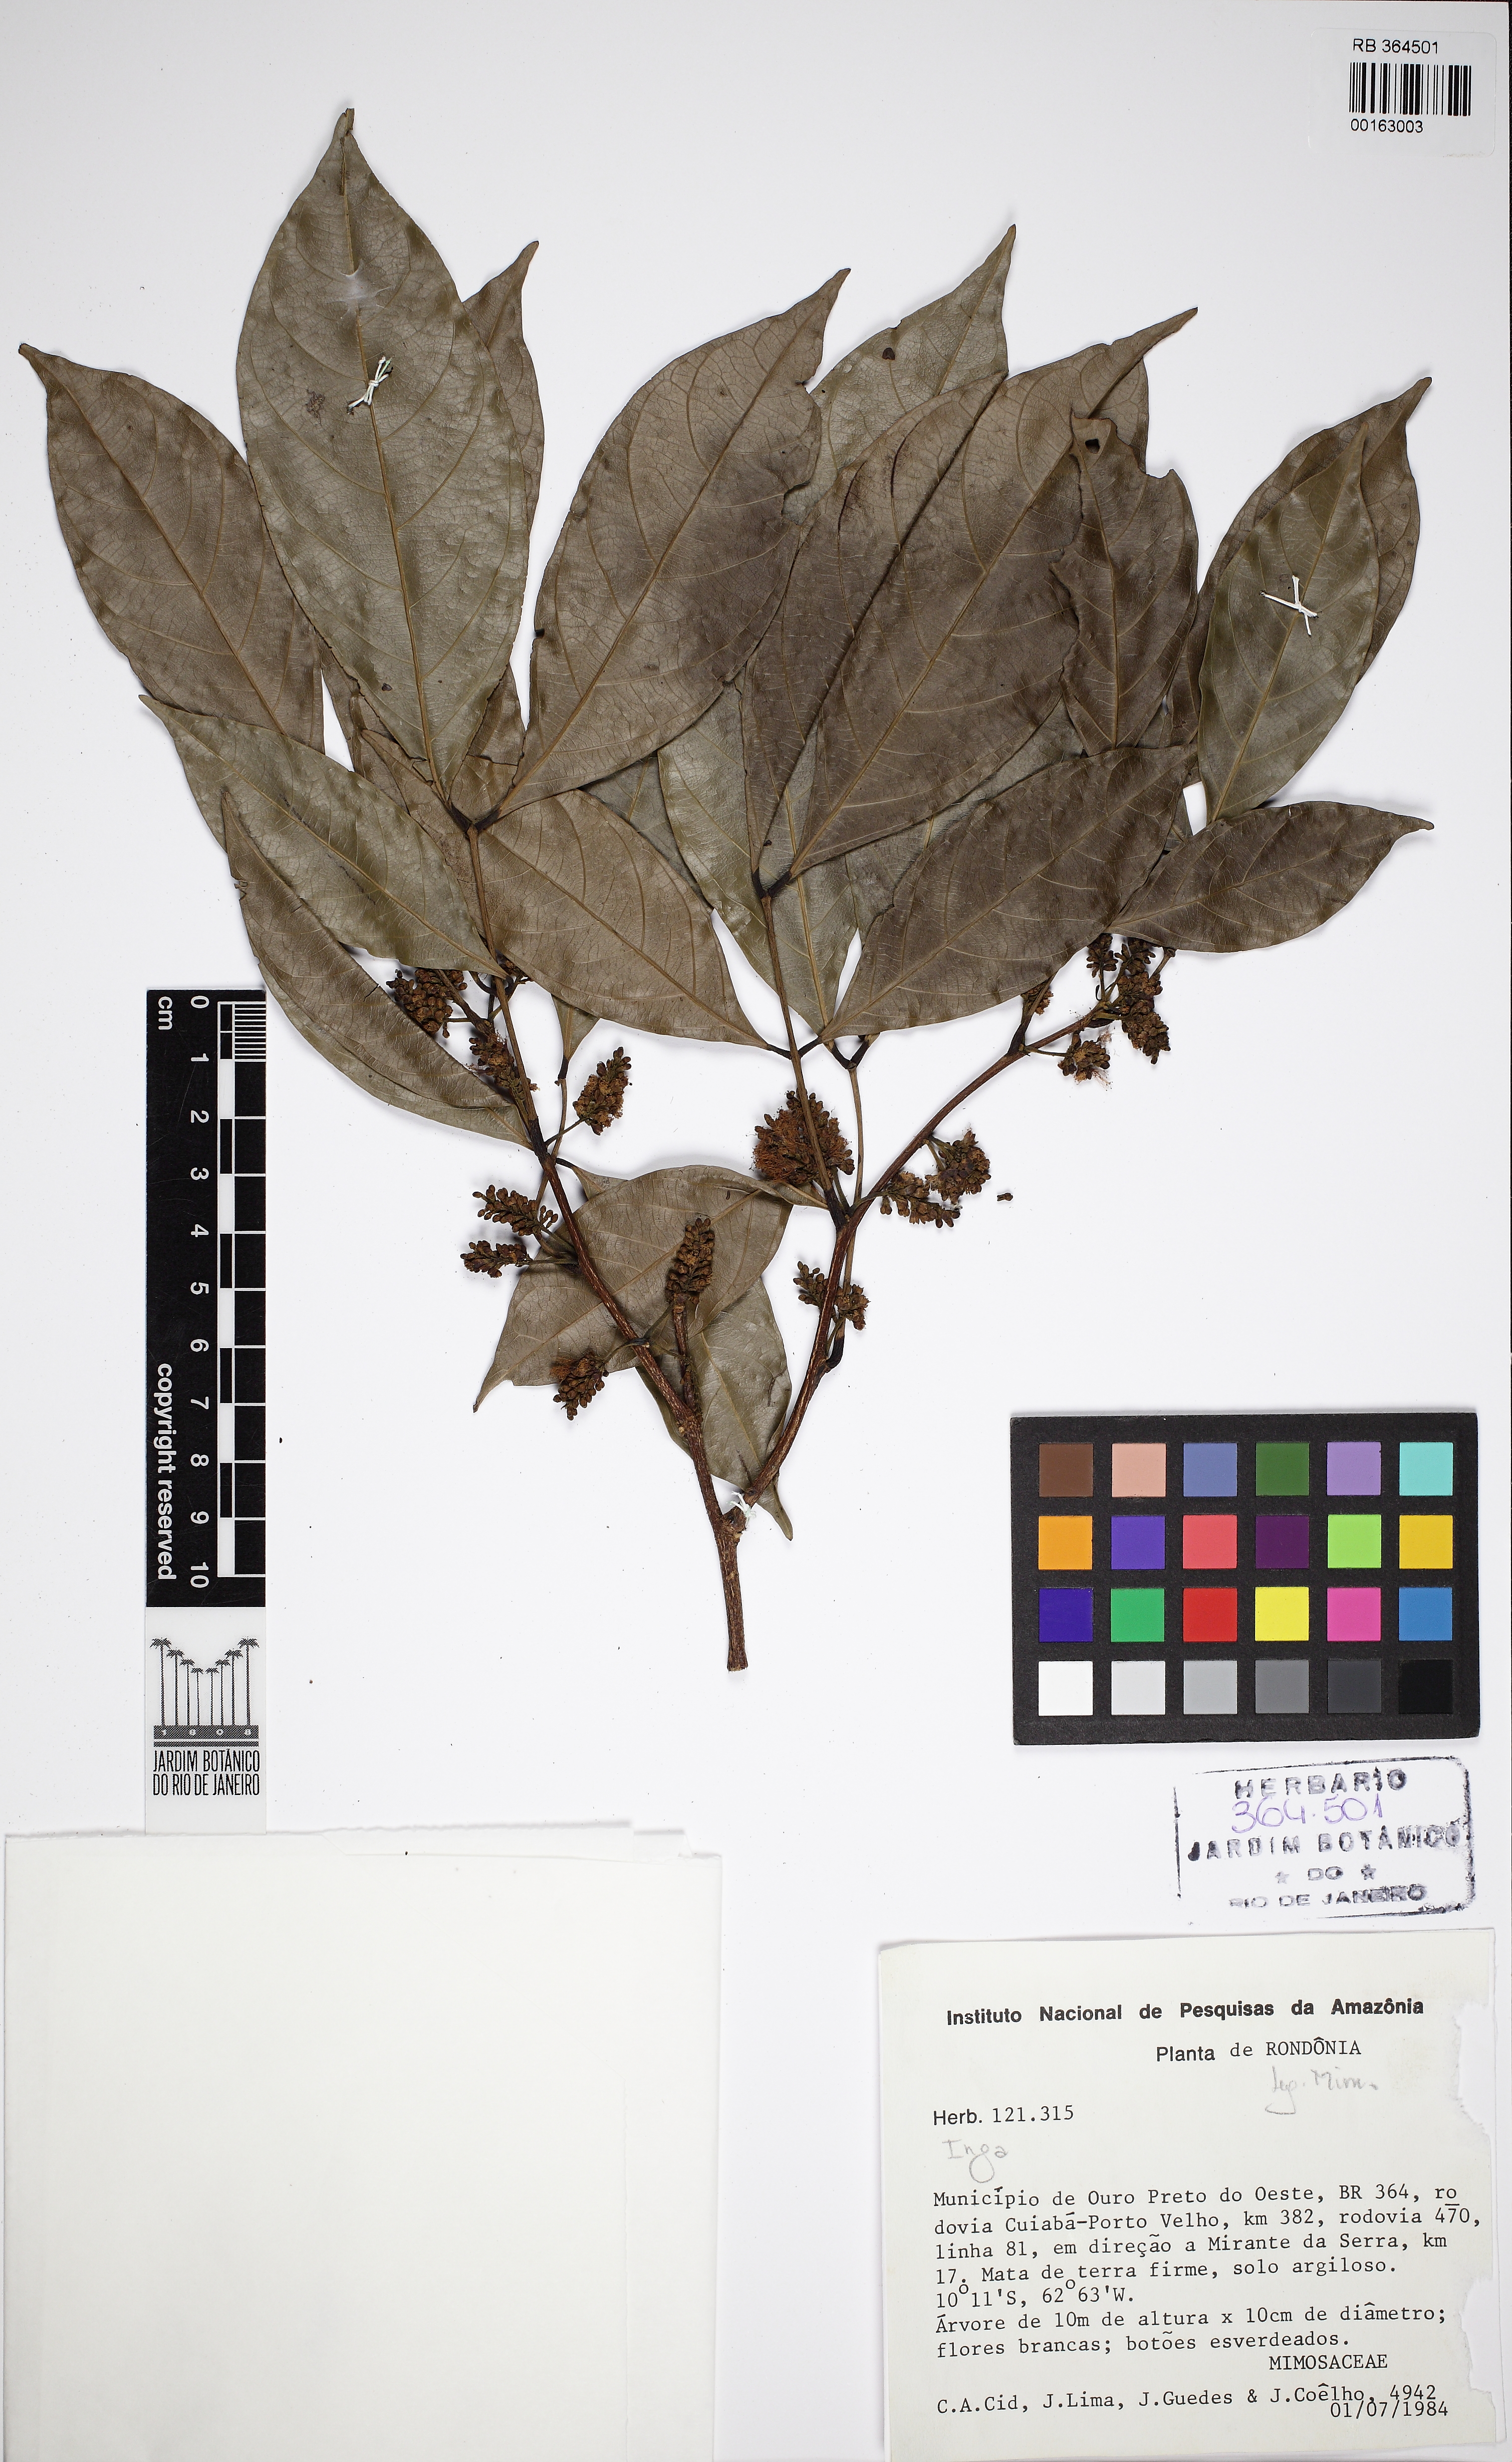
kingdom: Plantae
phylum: Tracheophyta
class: Magnoliopsida
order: Fabales
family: Fabaceae
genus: Inga
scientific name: Inga alba
